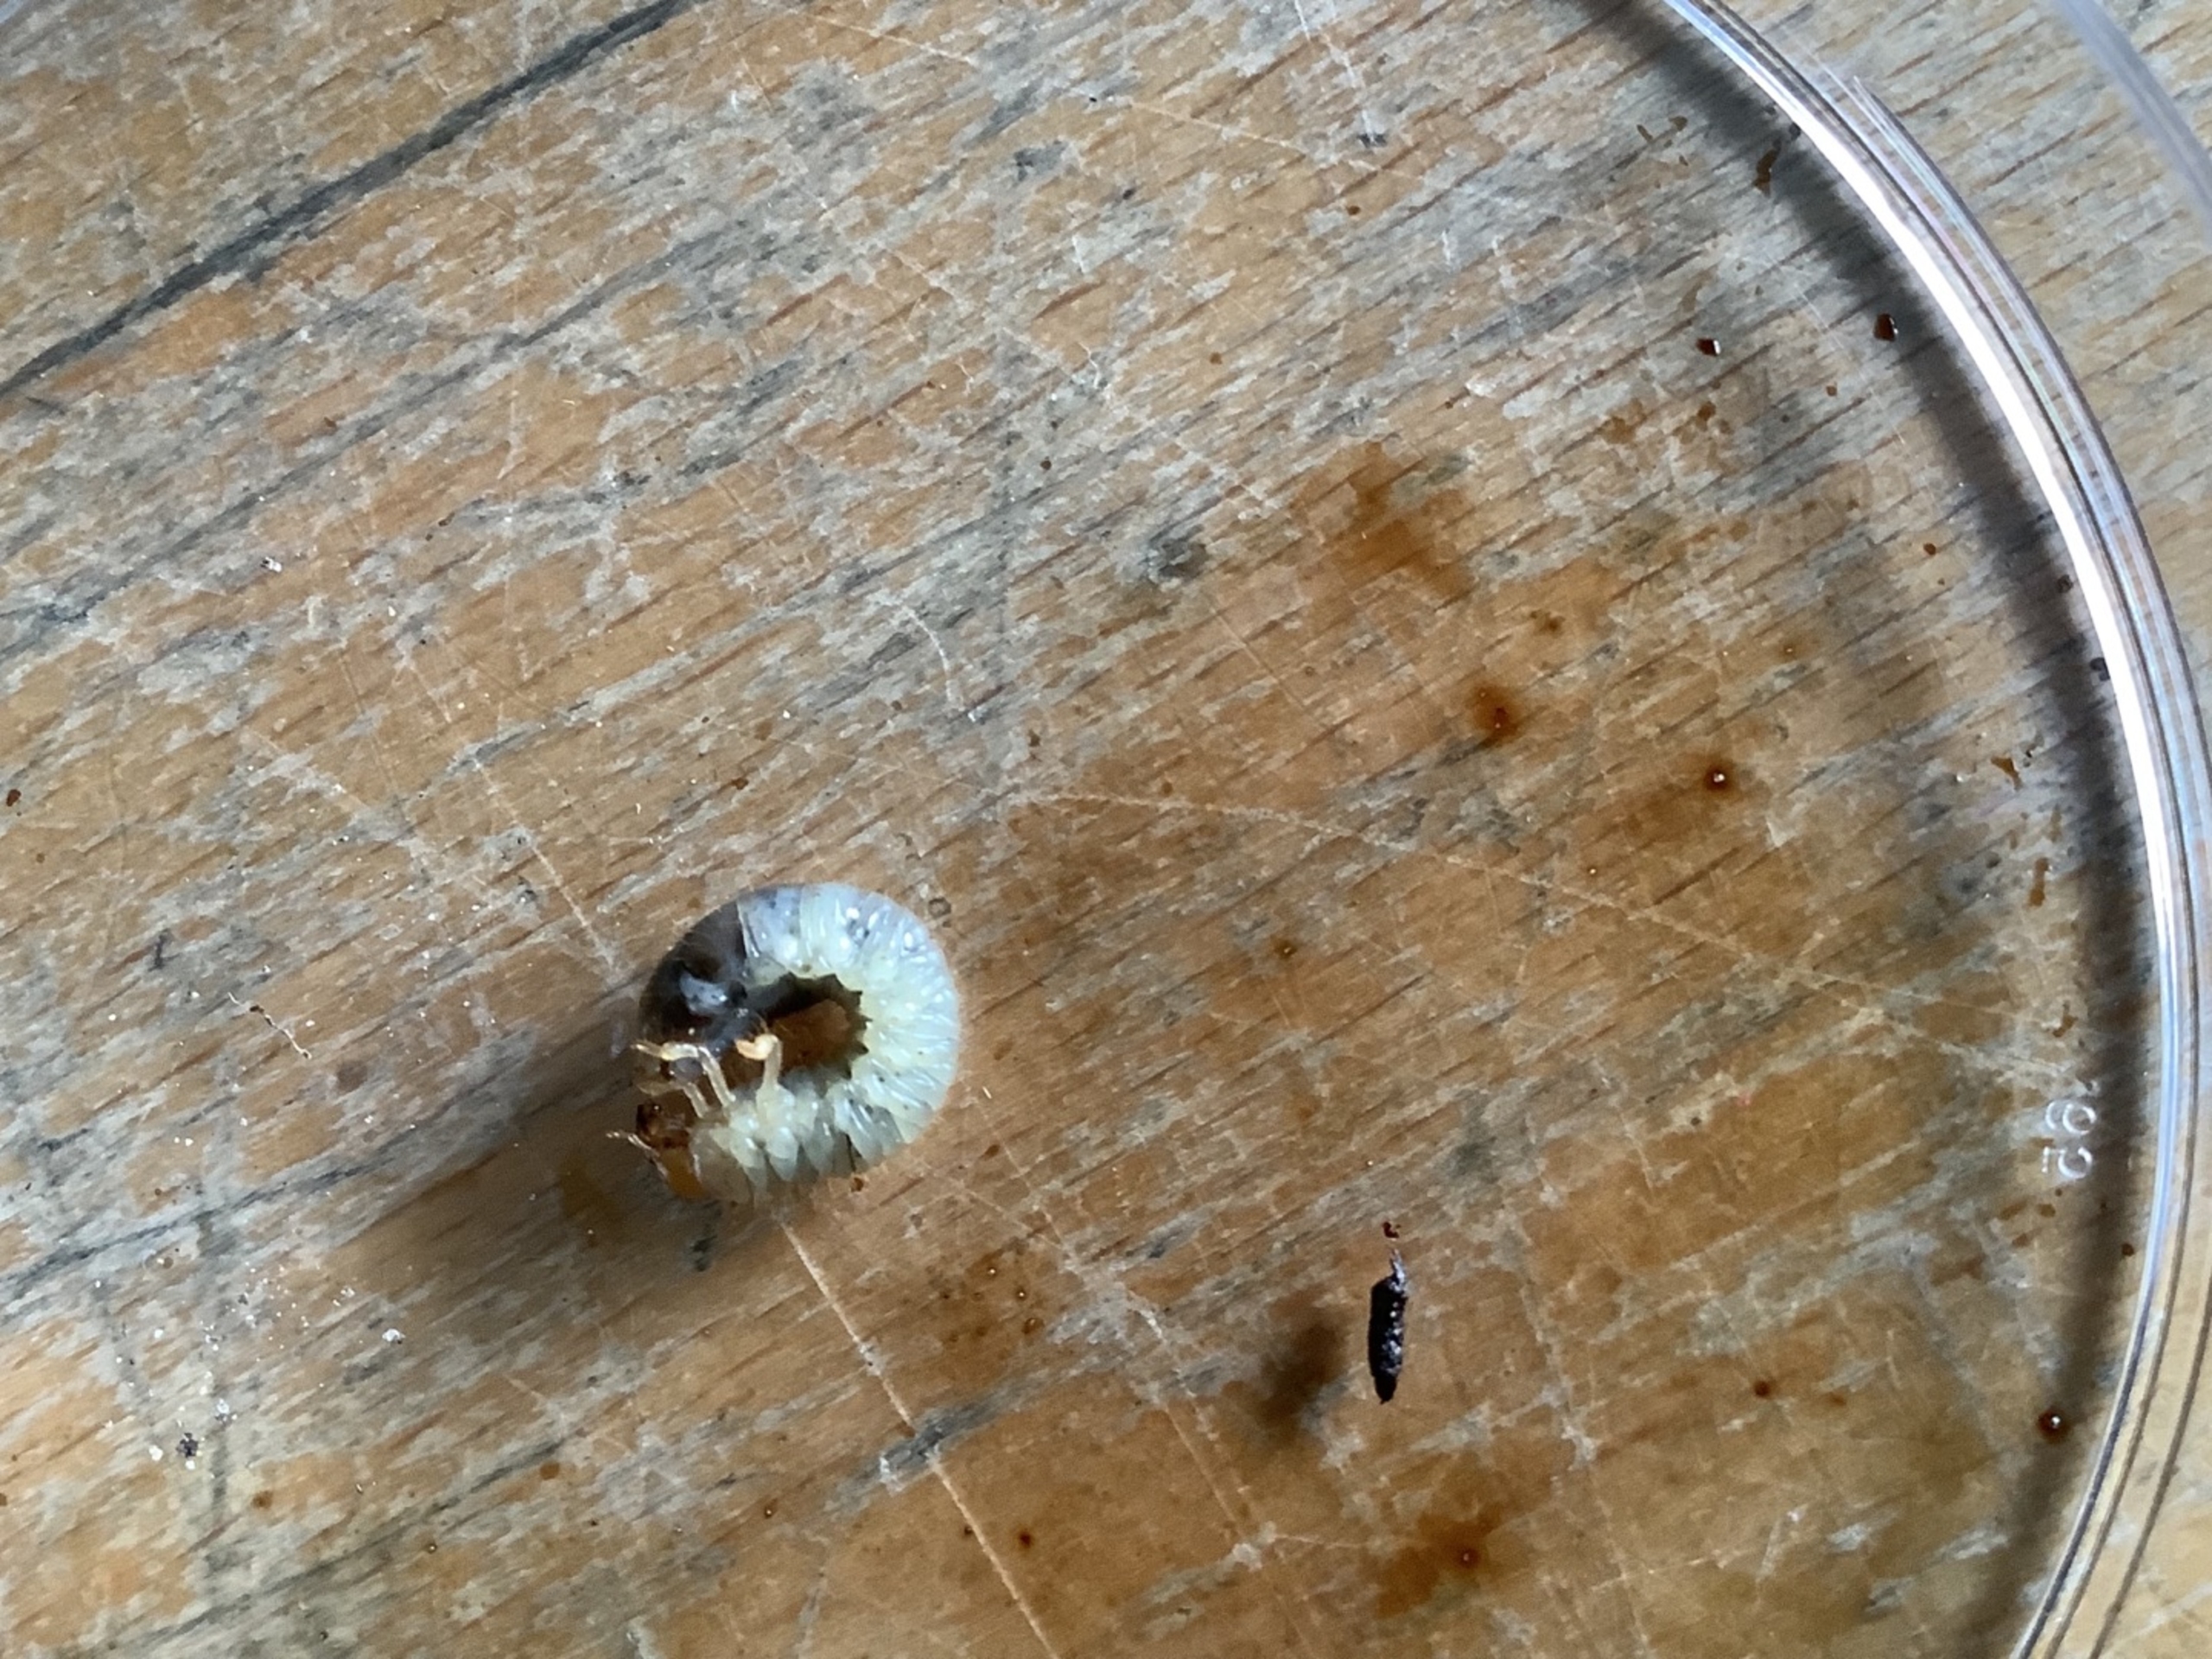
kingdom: Animalia
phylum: Arthropoda
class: Insecta
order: Coleoptera
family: Scarabaeidae
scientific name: Scarabaeidae
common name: Torbister
